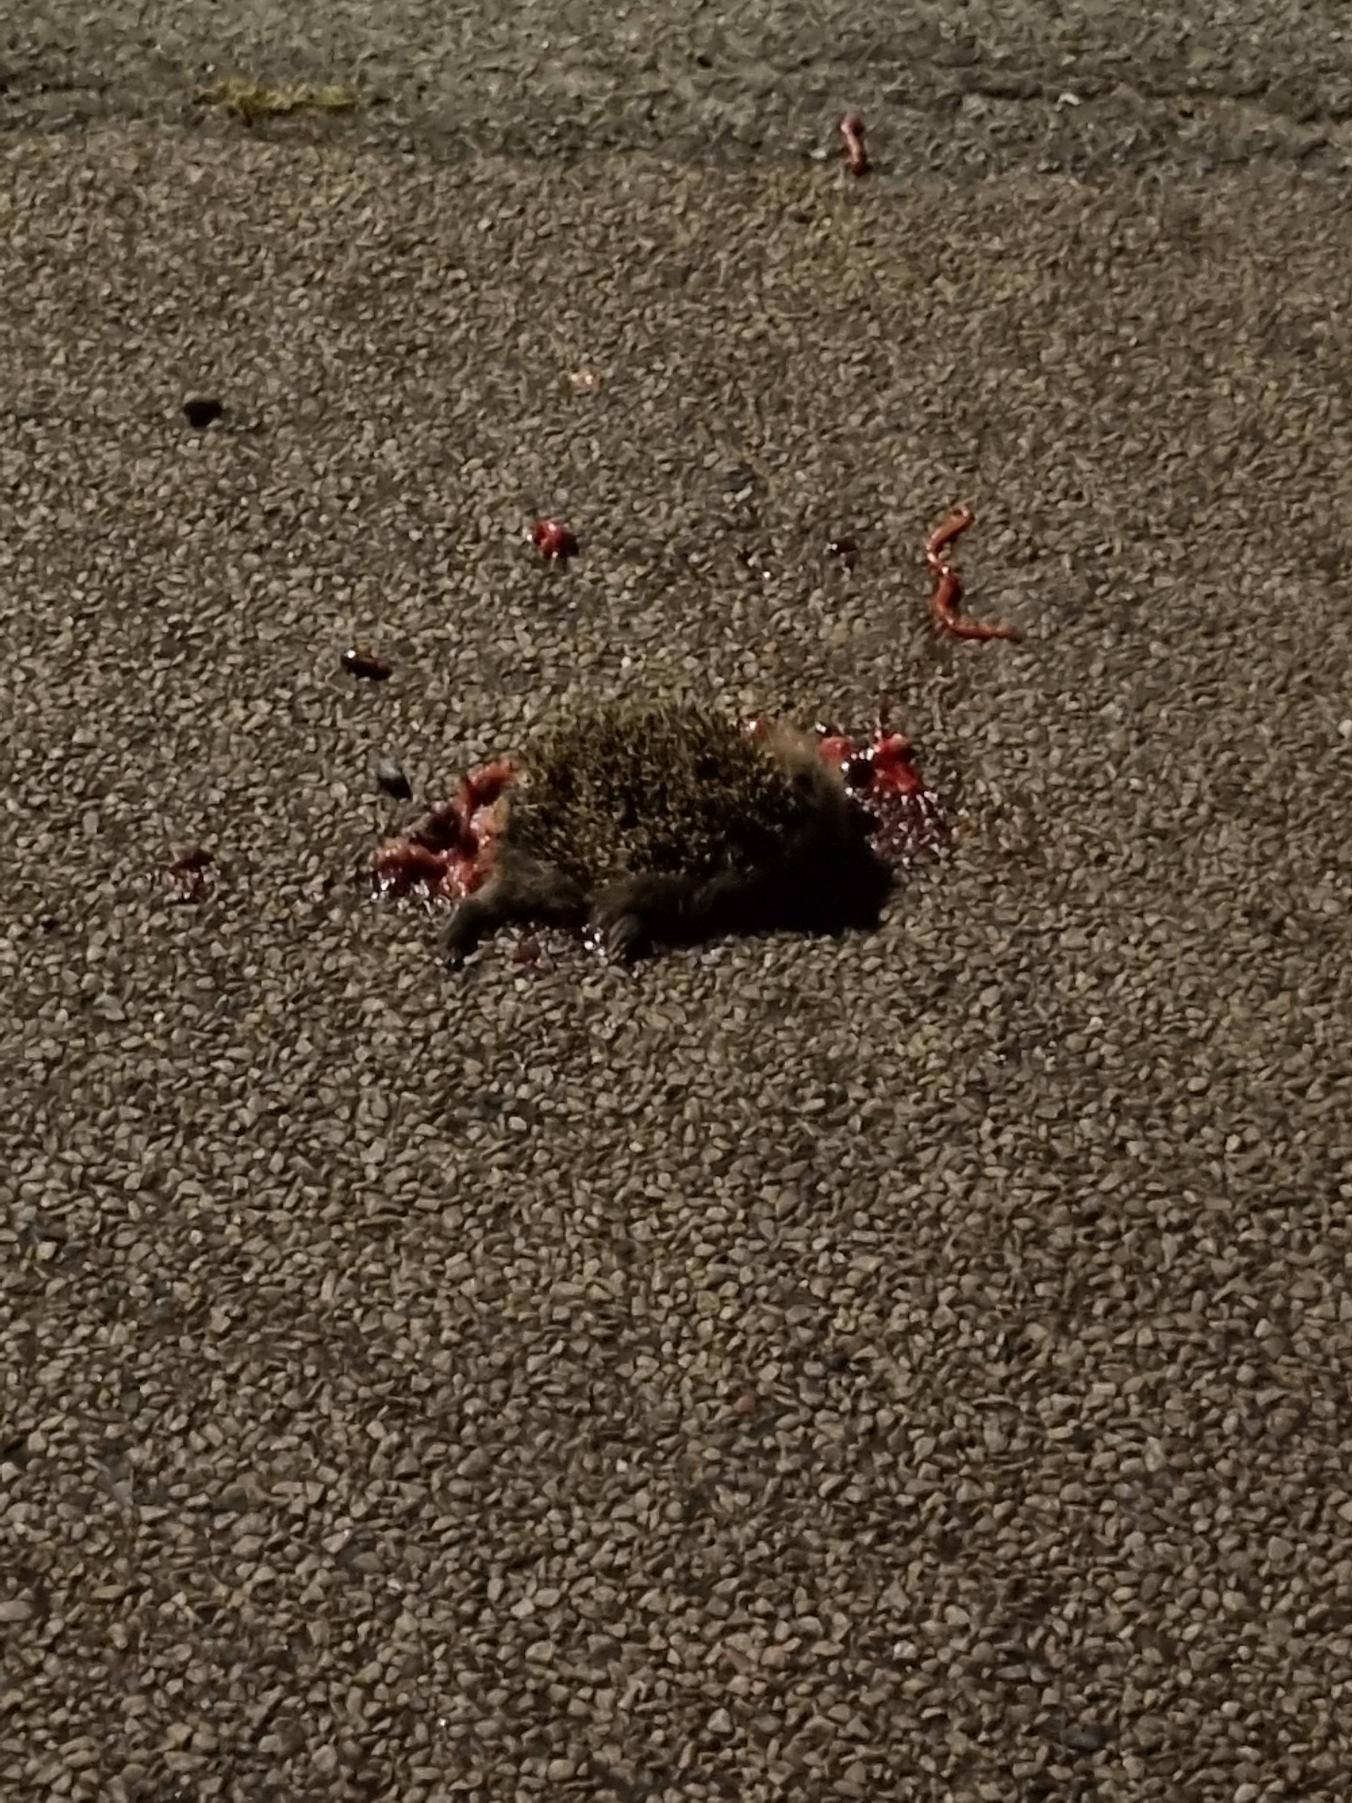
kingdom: Animalia
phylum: Chordata
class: Mammalia
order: Erinaceomorpha
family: Erinaceidae
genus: Erinaceus
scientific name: Erinaceus europaeus
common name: Pindsvin
